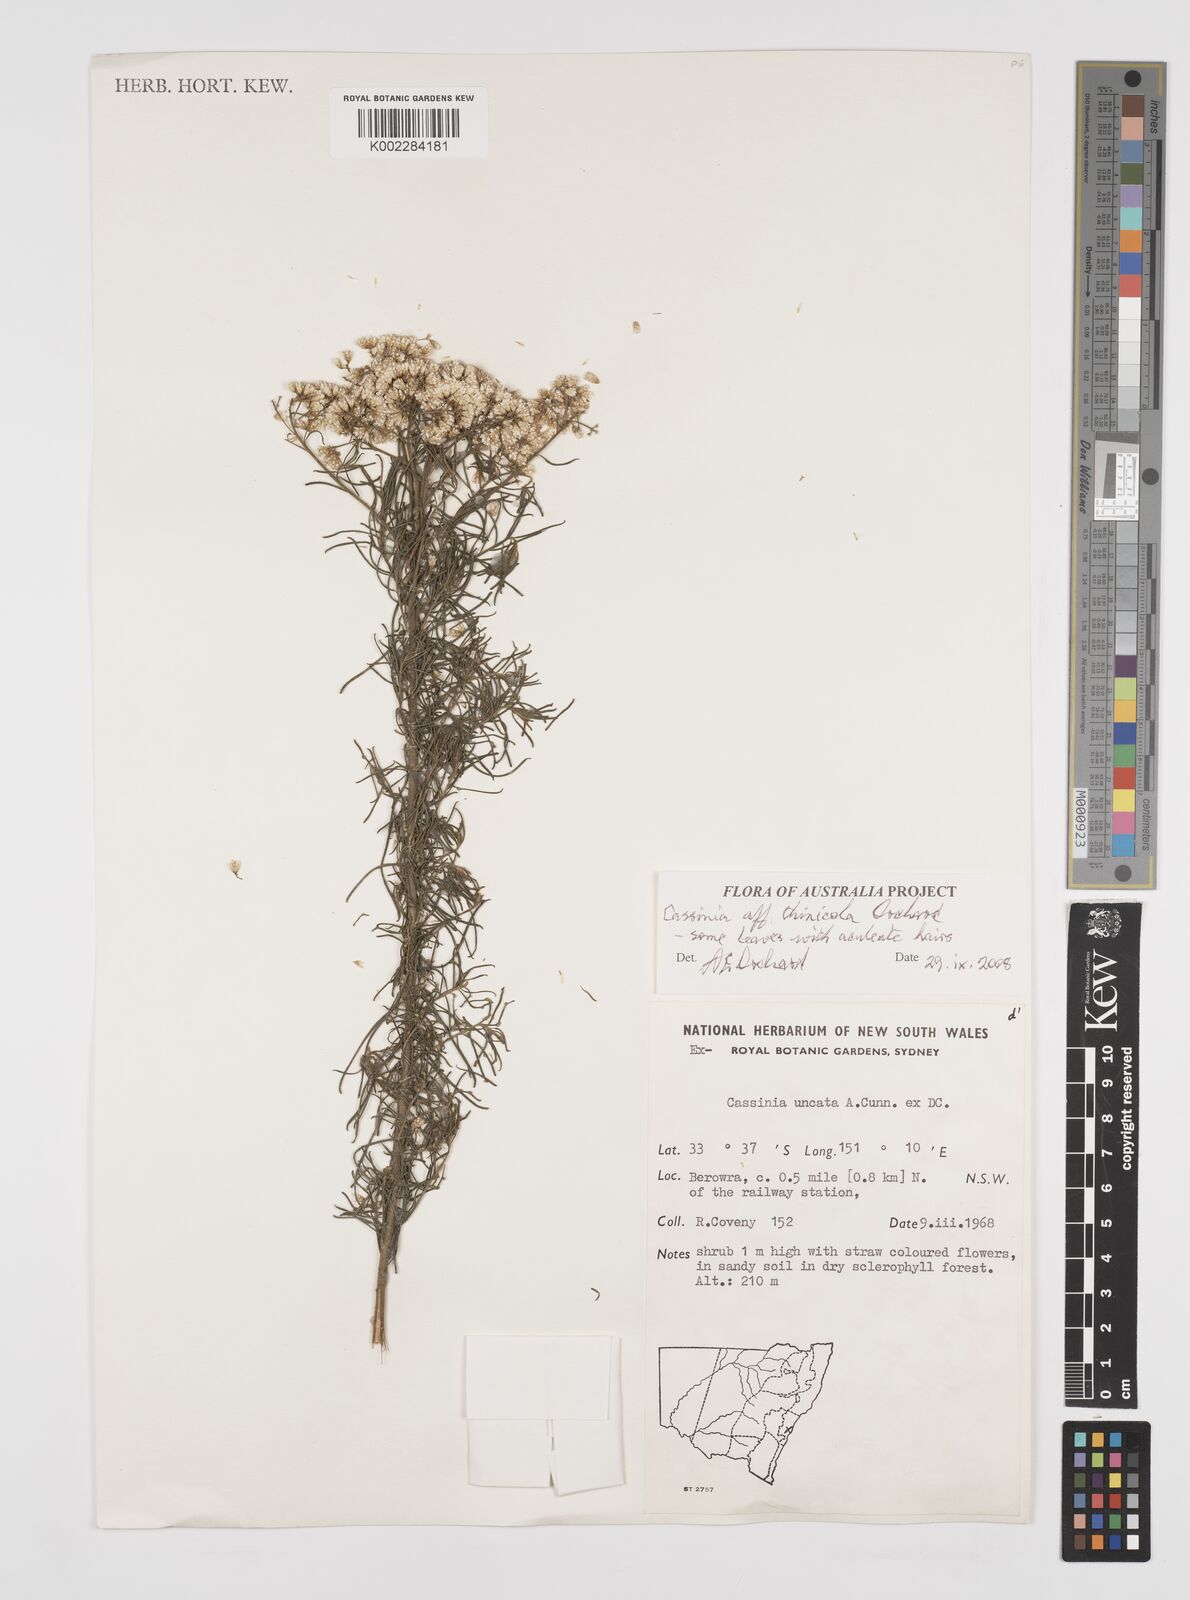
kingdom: Plantae
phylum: Tracheophyta
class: Magnoliopsida
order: Asterales
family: Asteraceae
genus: Cassinia
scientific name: Cassinia thinicola
